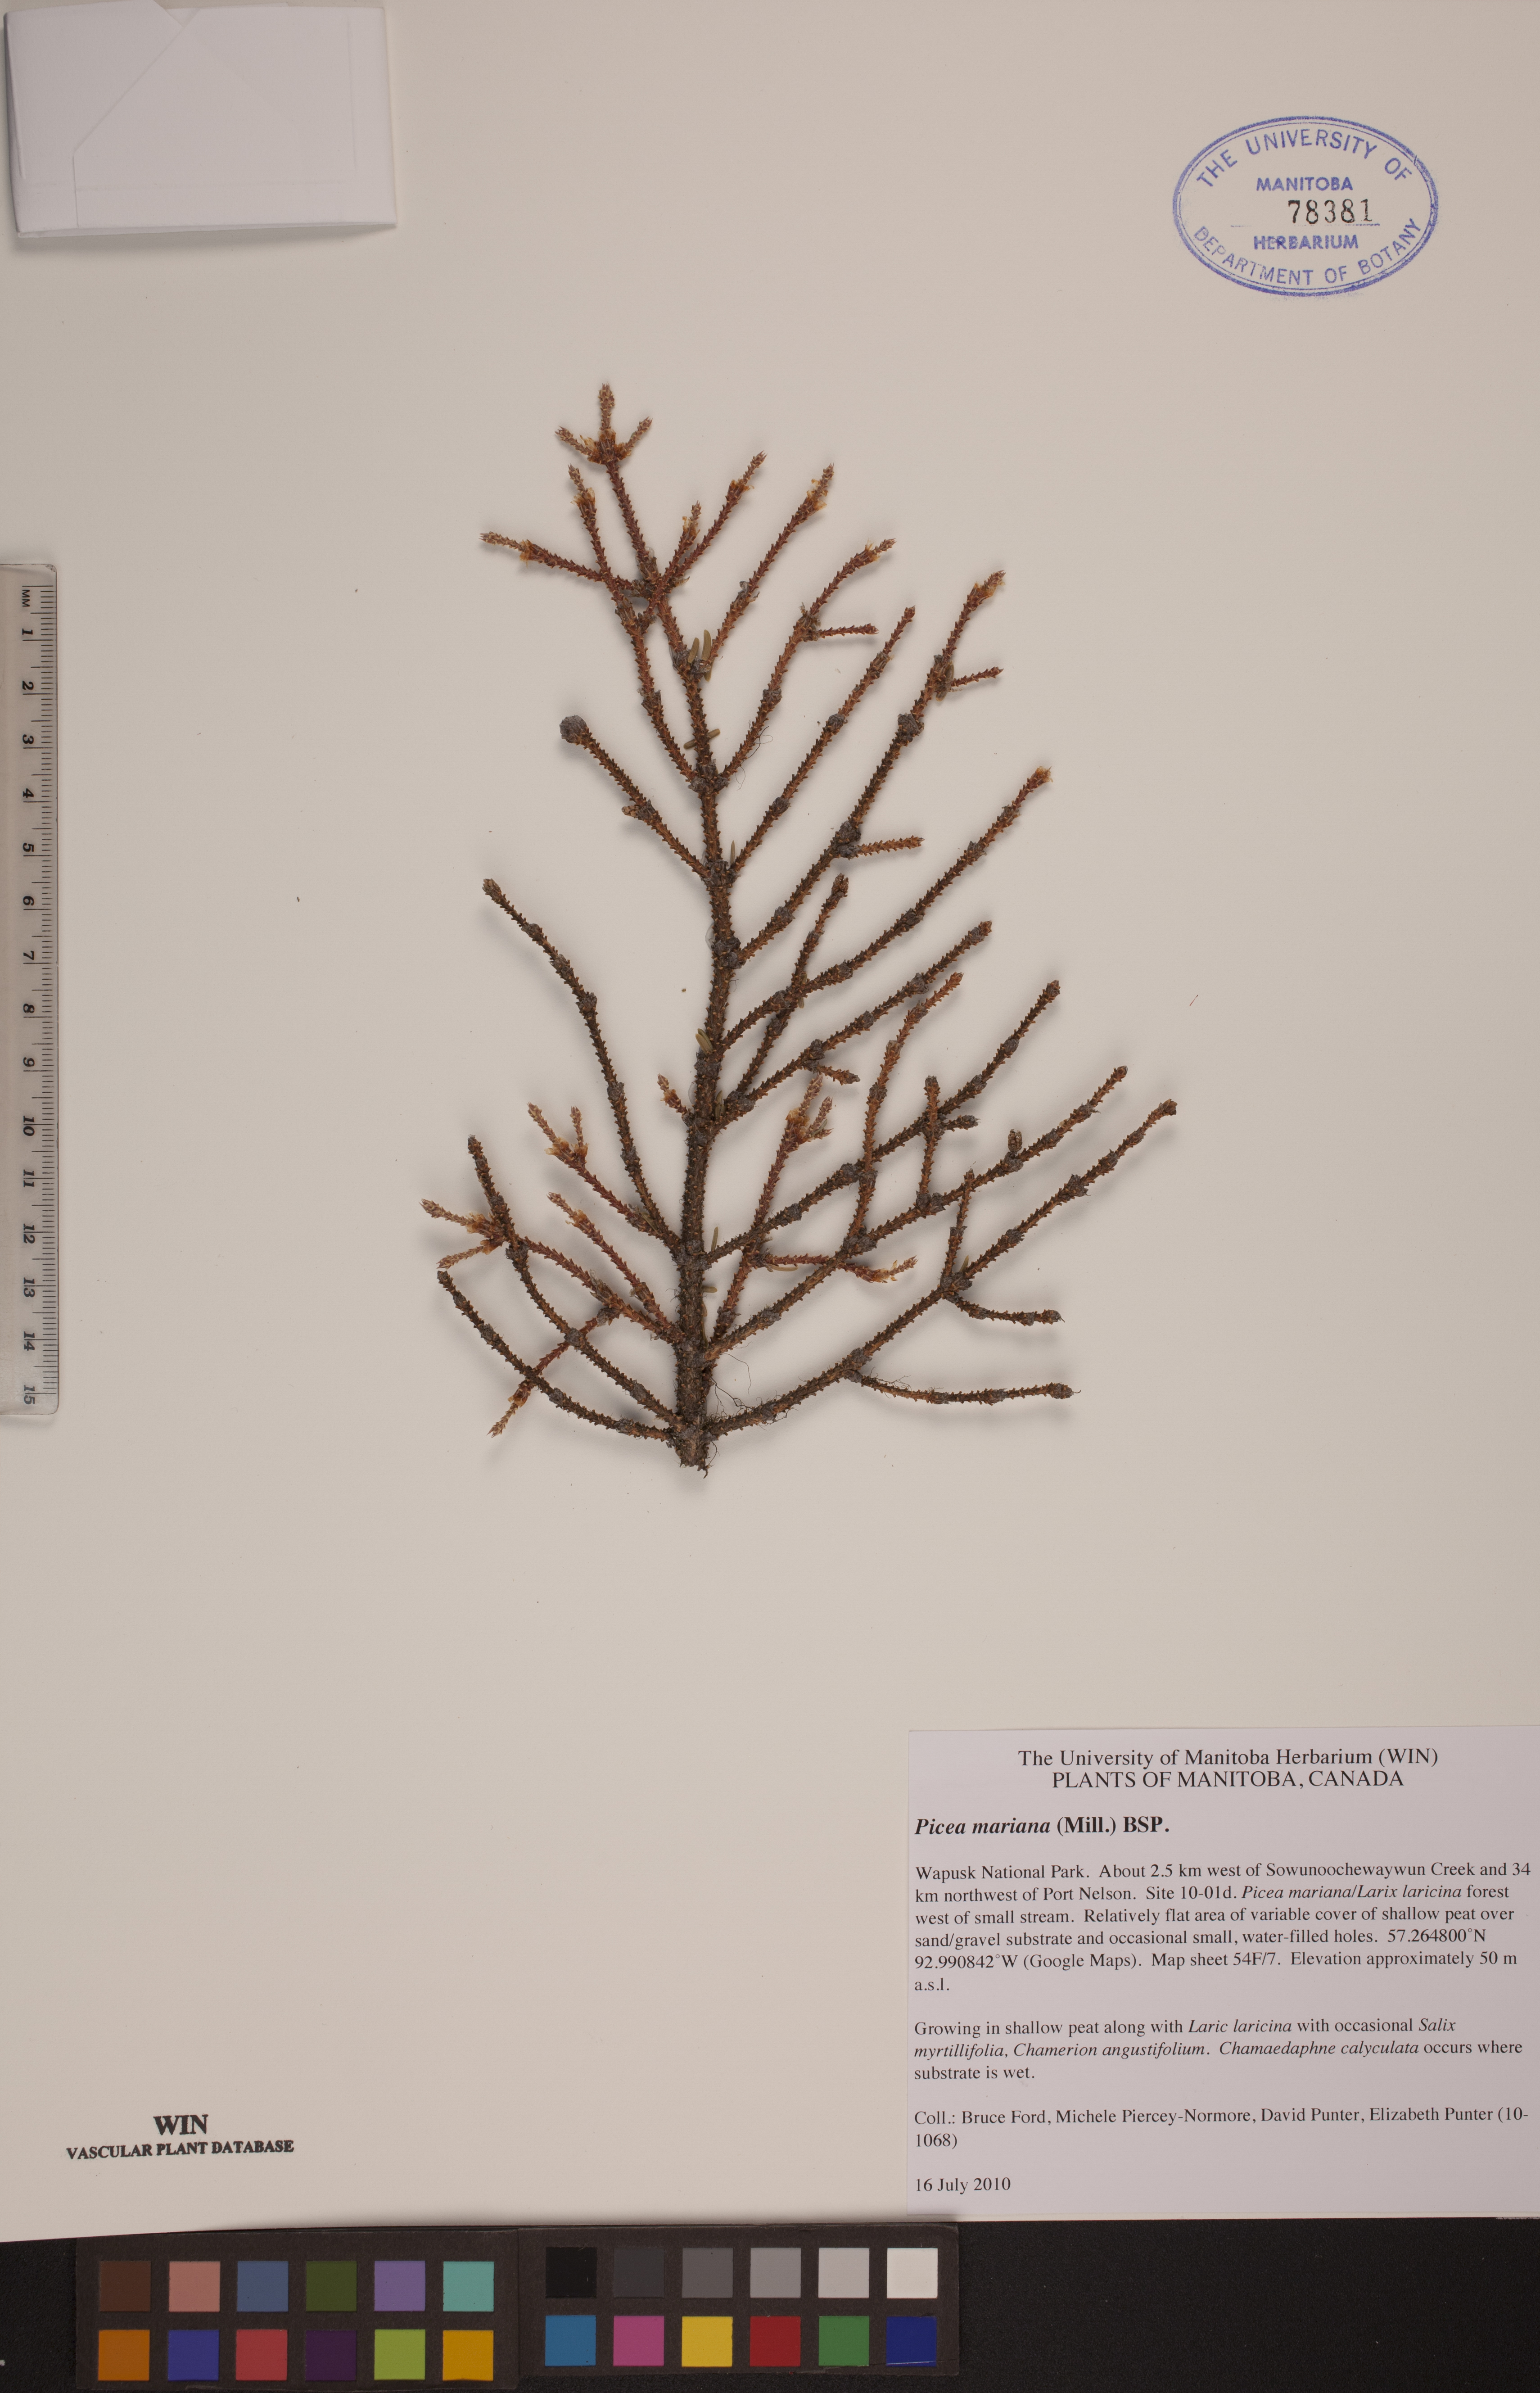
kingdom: Plantae
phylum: Tracheophyta
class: Pinopsida
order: Pinales
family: Pinaceae
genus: Picea
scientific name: Picea mariana
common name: Black spruce
